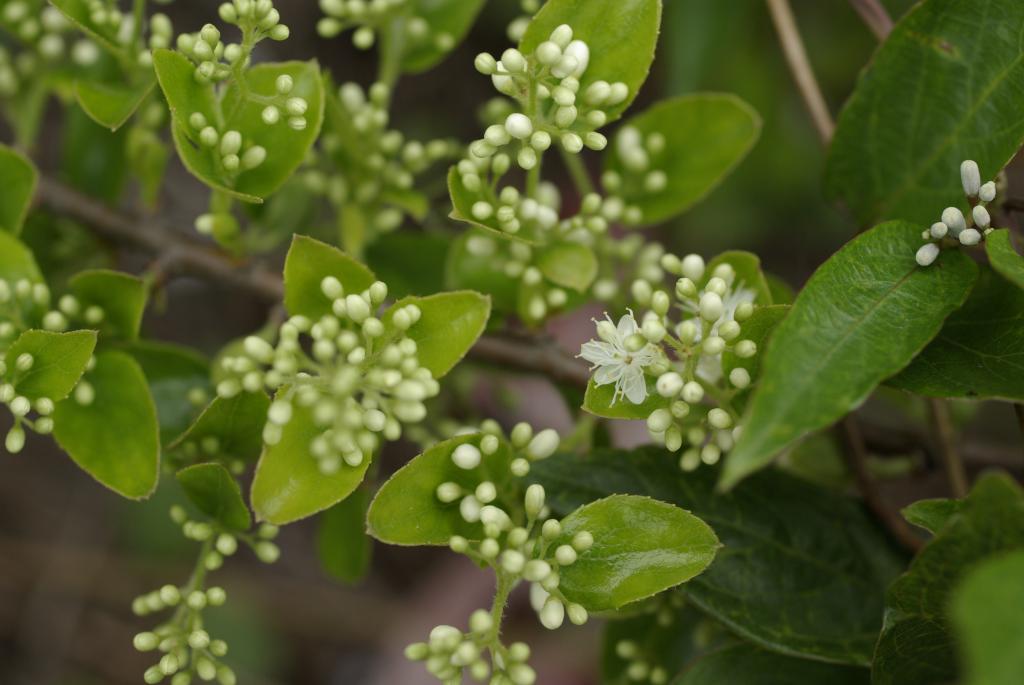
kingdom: Plantae
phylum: Tracheophyta
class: Magnoliopsida
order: Ericales
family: Symplocaceae
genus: Symplocos
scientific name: Symplocos paniculata
